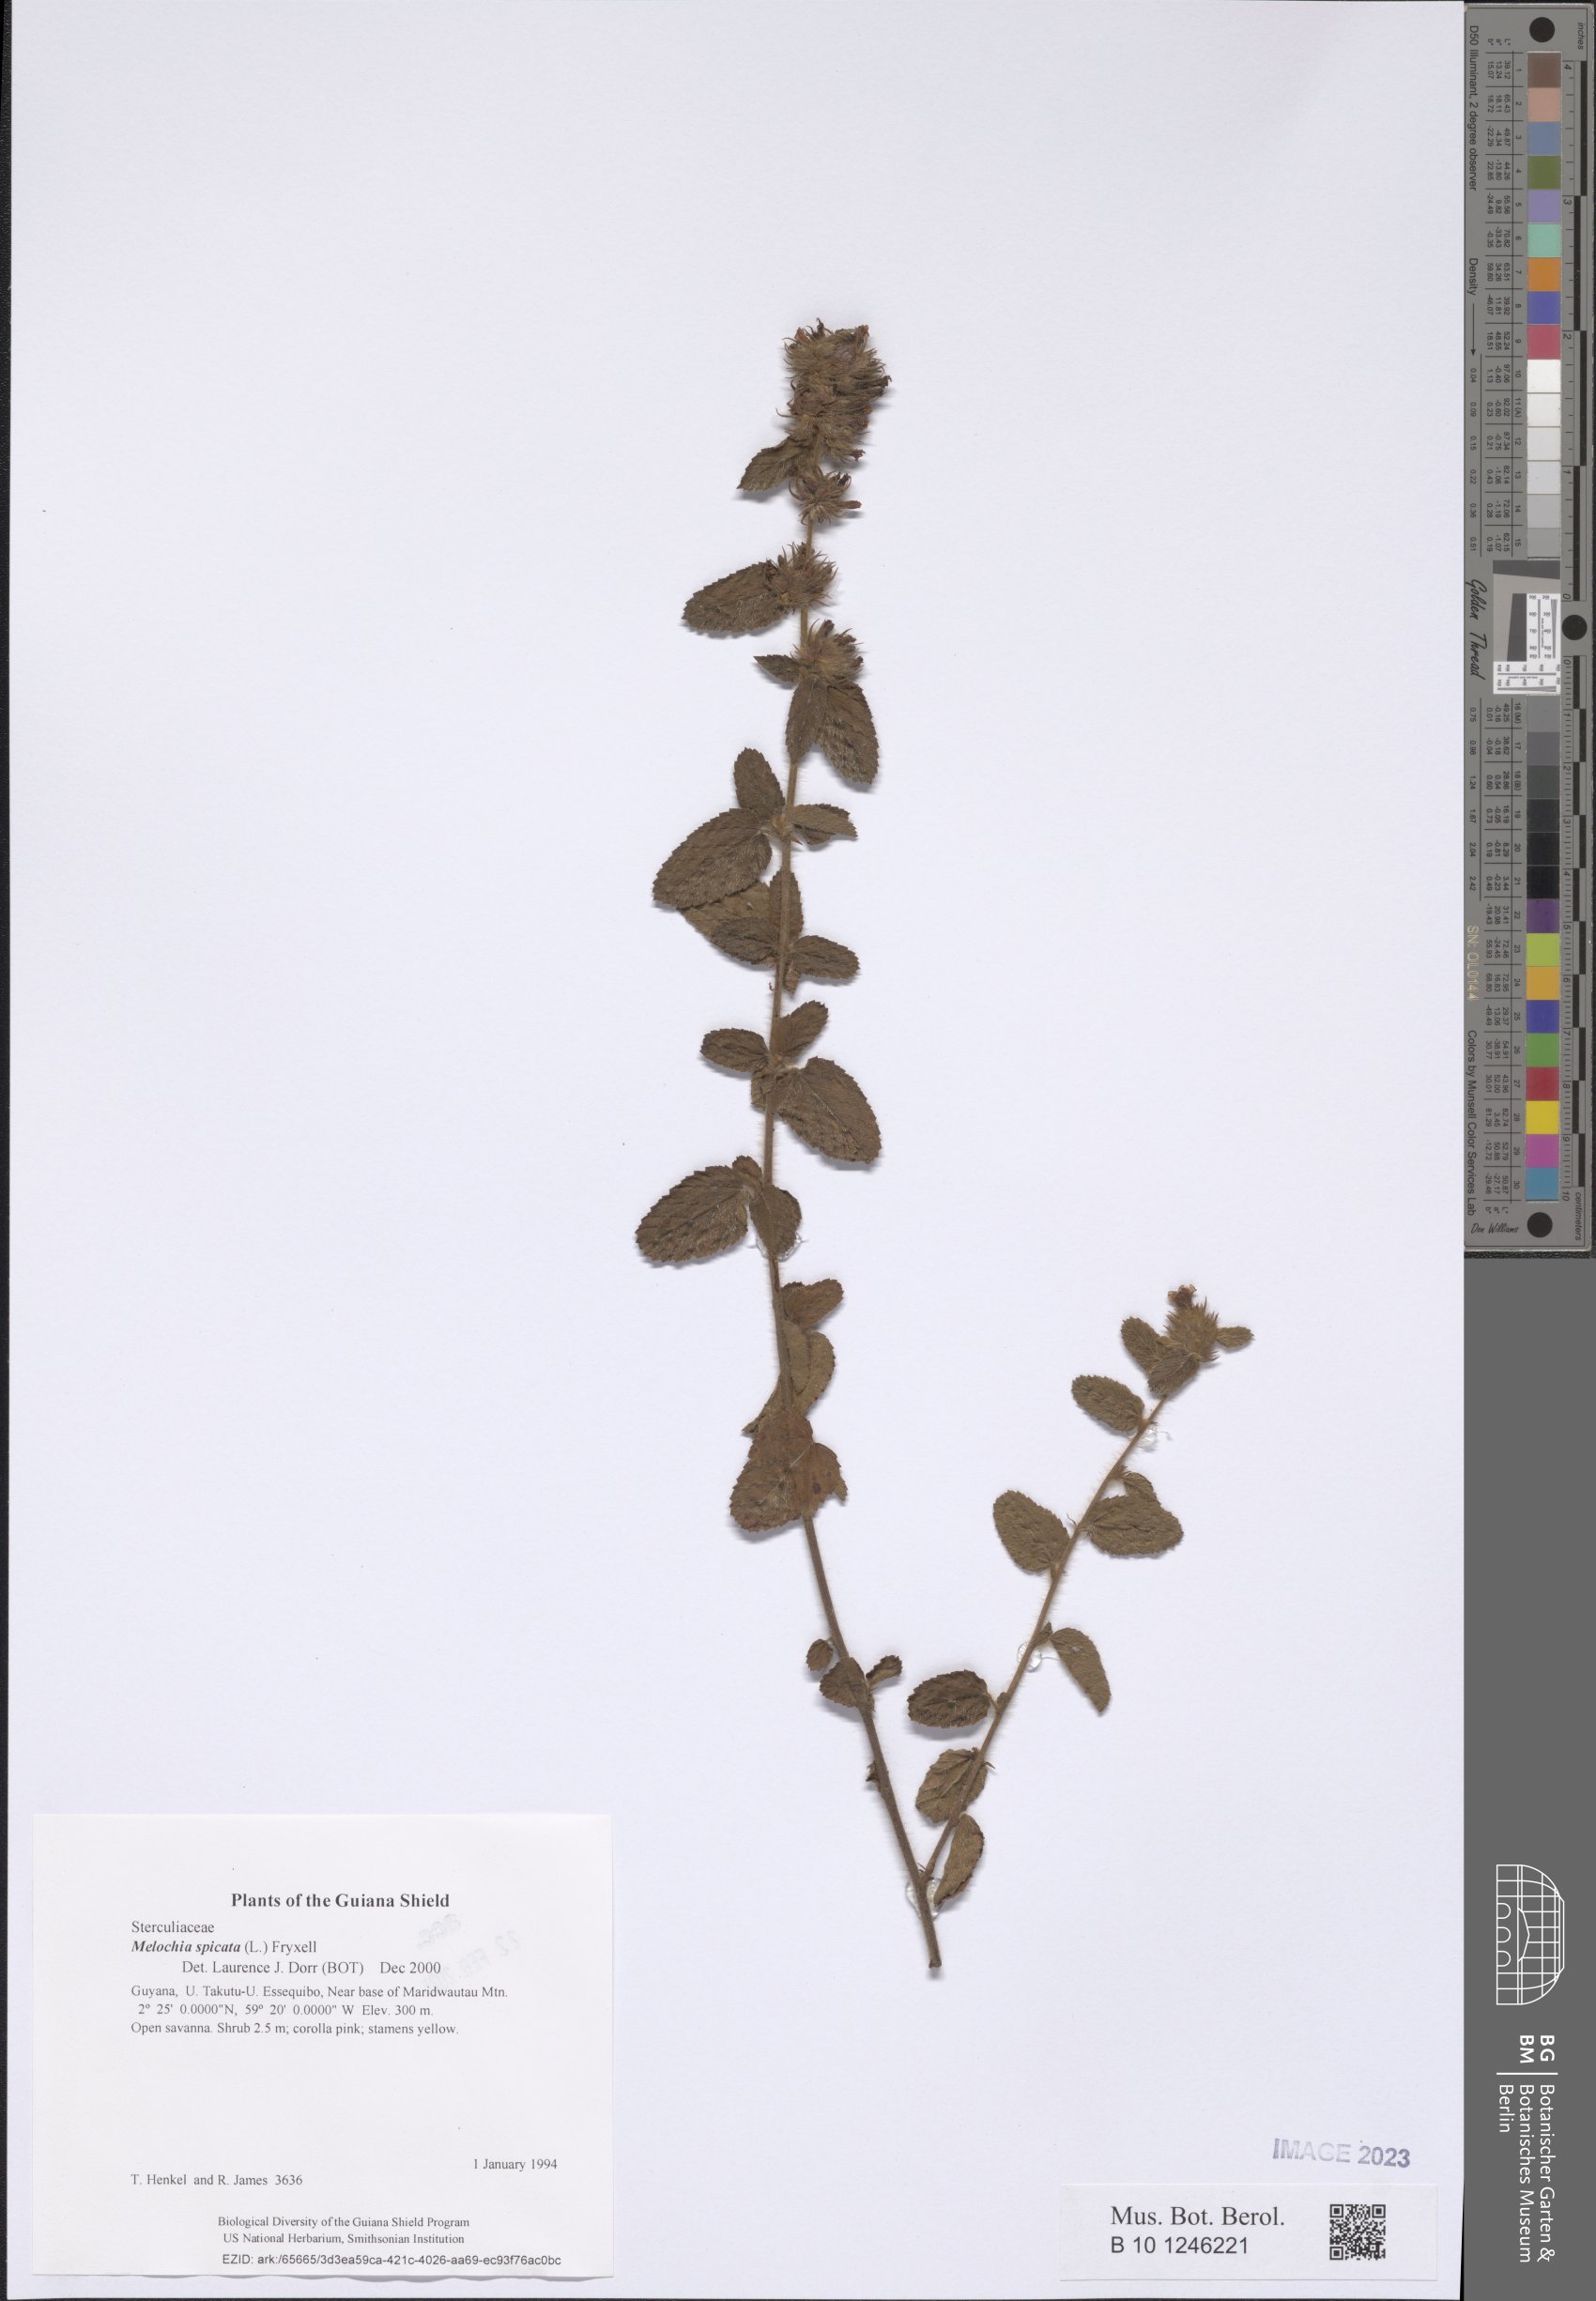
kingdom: Plantae
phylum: Tracheophyta
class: Magnoliopsida
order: Malvales
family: Malvaceae
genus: Melochia
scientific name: Melochia spicata
